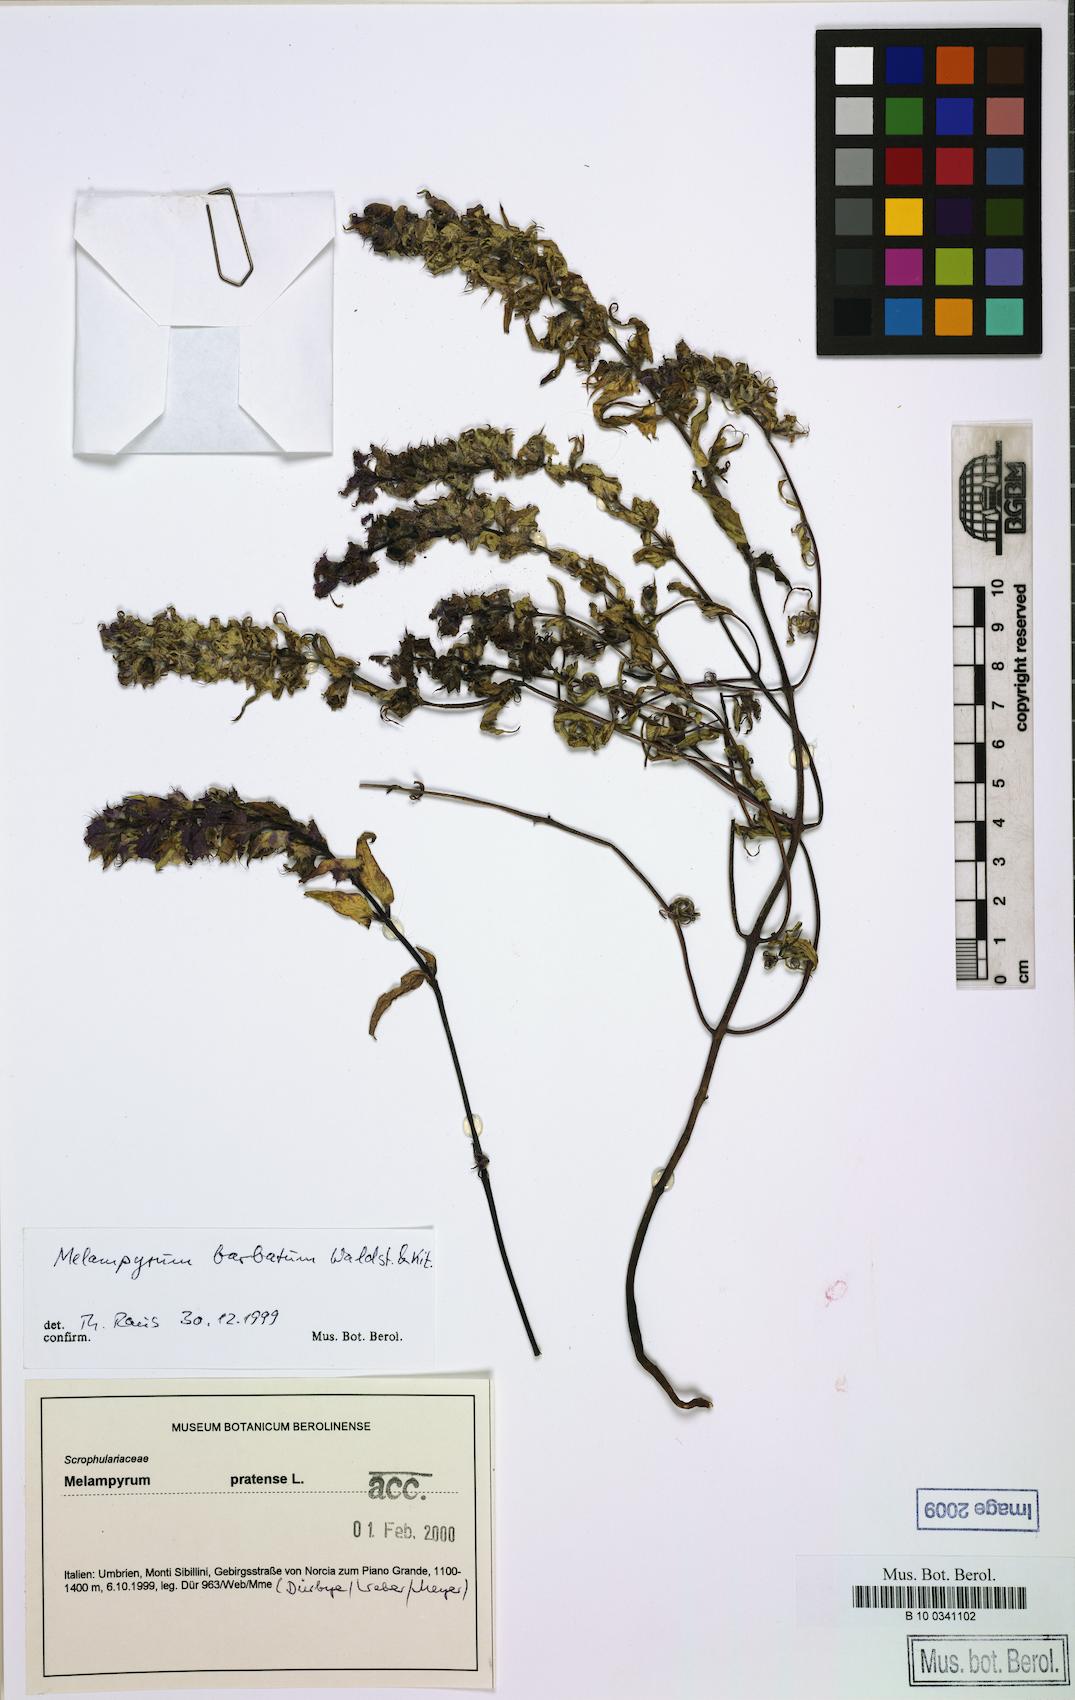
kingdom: Plantae
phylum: Tracheophyta
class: Magnoliopsida
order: Lamiales
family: Orobanchaceae
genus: Melampyrum
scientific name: Melampyrum barbatum
